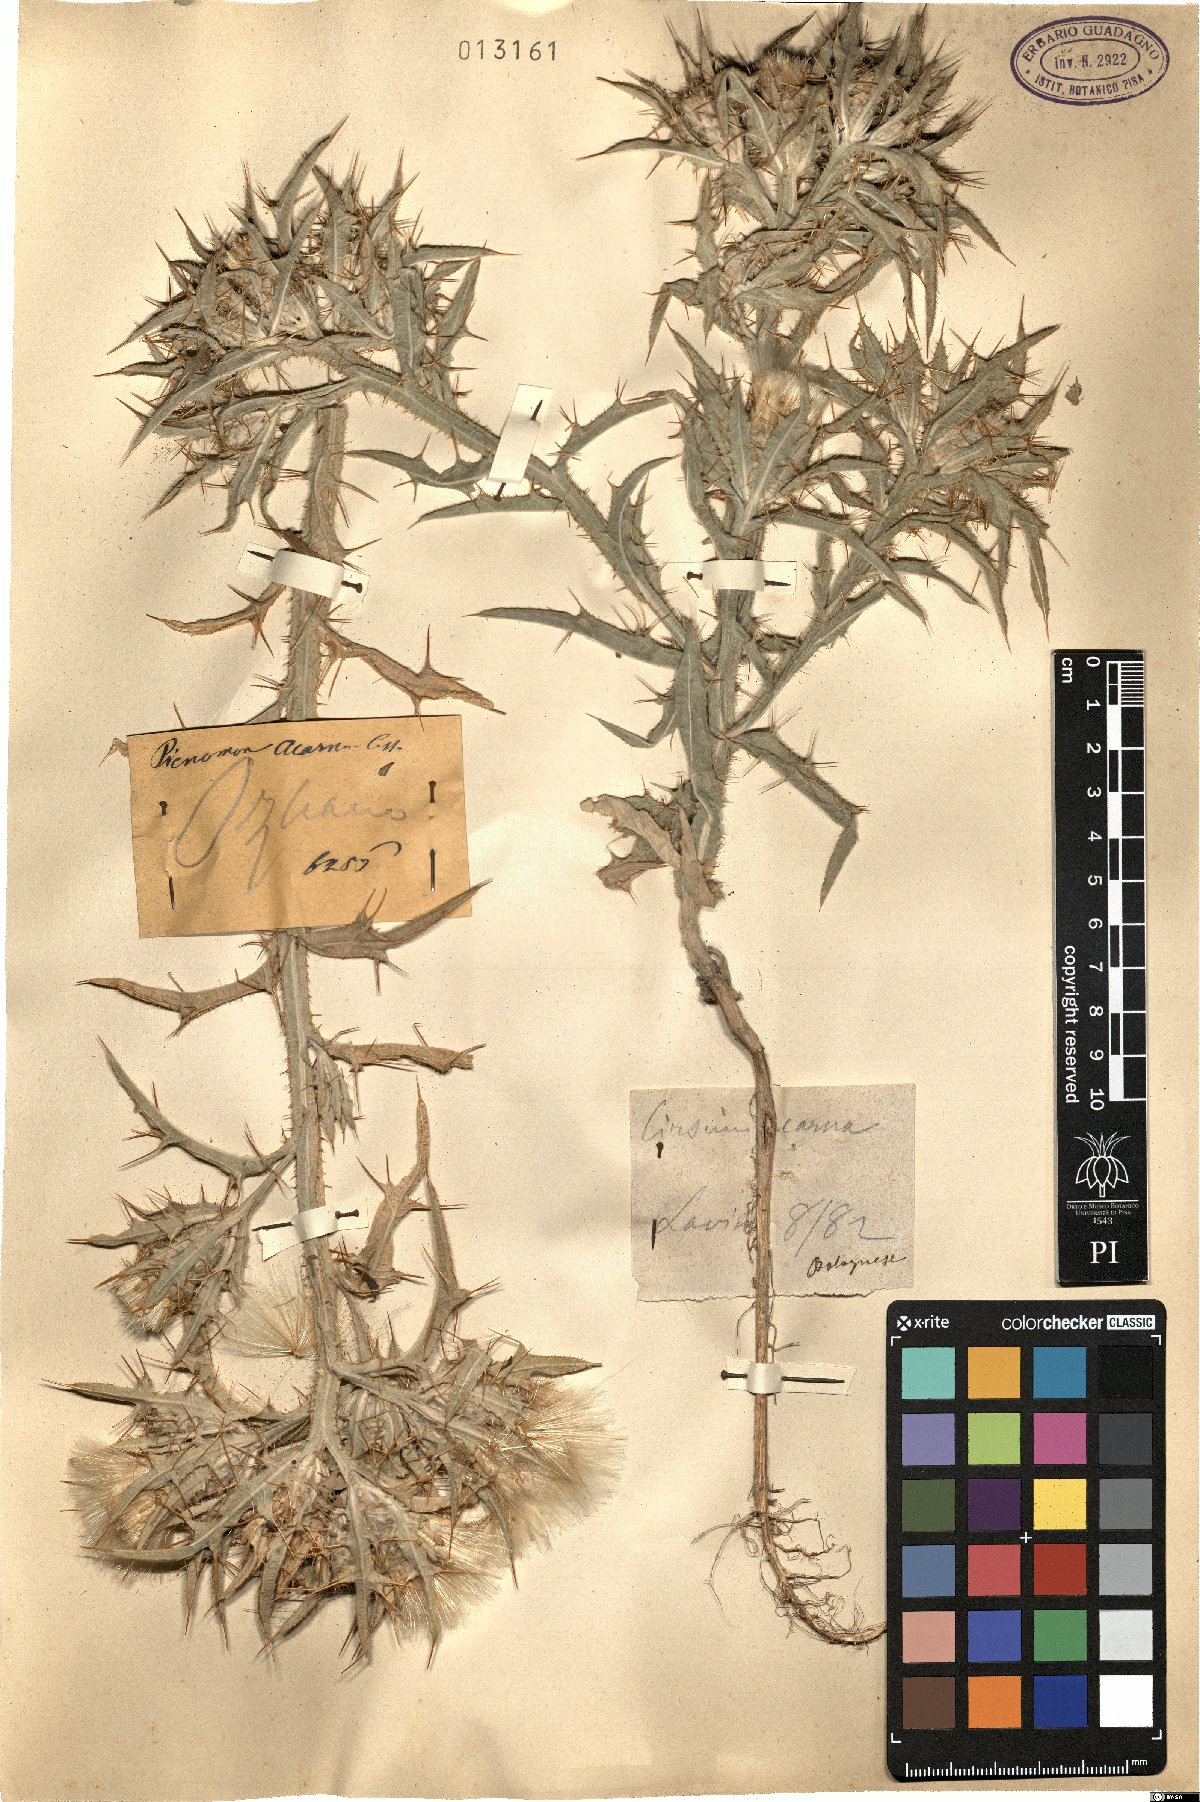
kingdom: Plantae
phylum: Tracheophyta
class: Magnoliopsida
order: Asterales
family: Asteraceae
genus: Picnomon
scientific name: Picnomon acarna
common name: Soldier thistle
